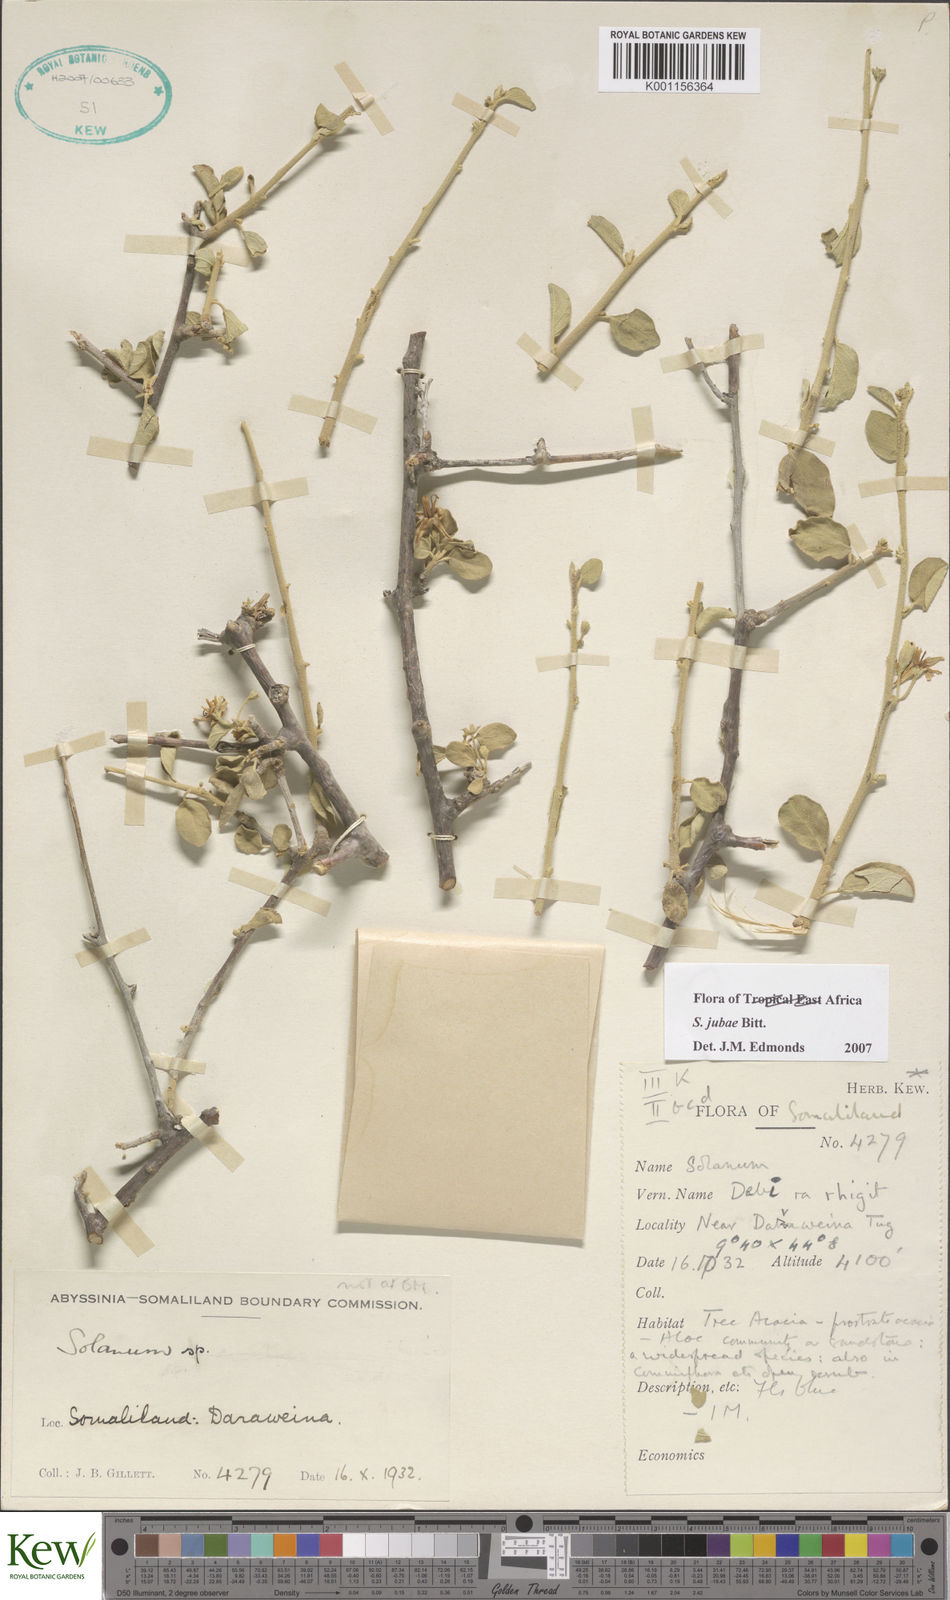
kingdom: Plantae
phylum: Tracheophyta
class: Magnoliopsida
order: Solanales
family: Solanaceae
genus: Solanum
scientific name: Solanum jubae
